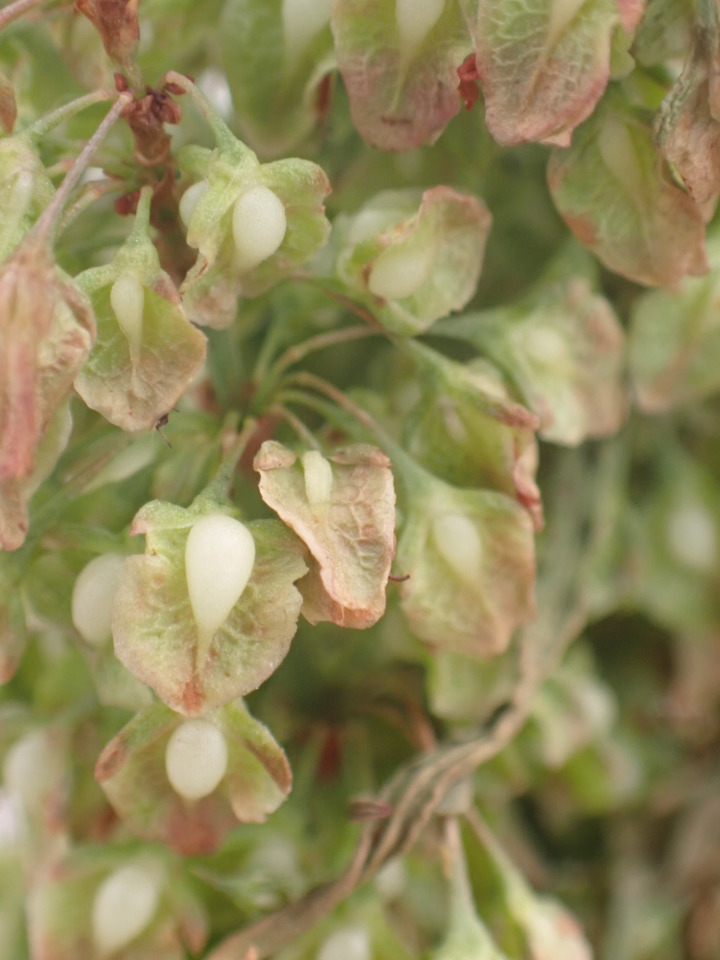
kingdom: Plantae
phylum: Tracheophyta
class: Magnoliopsida
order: Caryophyllales
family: Polygonaceae
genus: Rumex
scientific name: Rumex crispus
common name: Kruset skræppe
